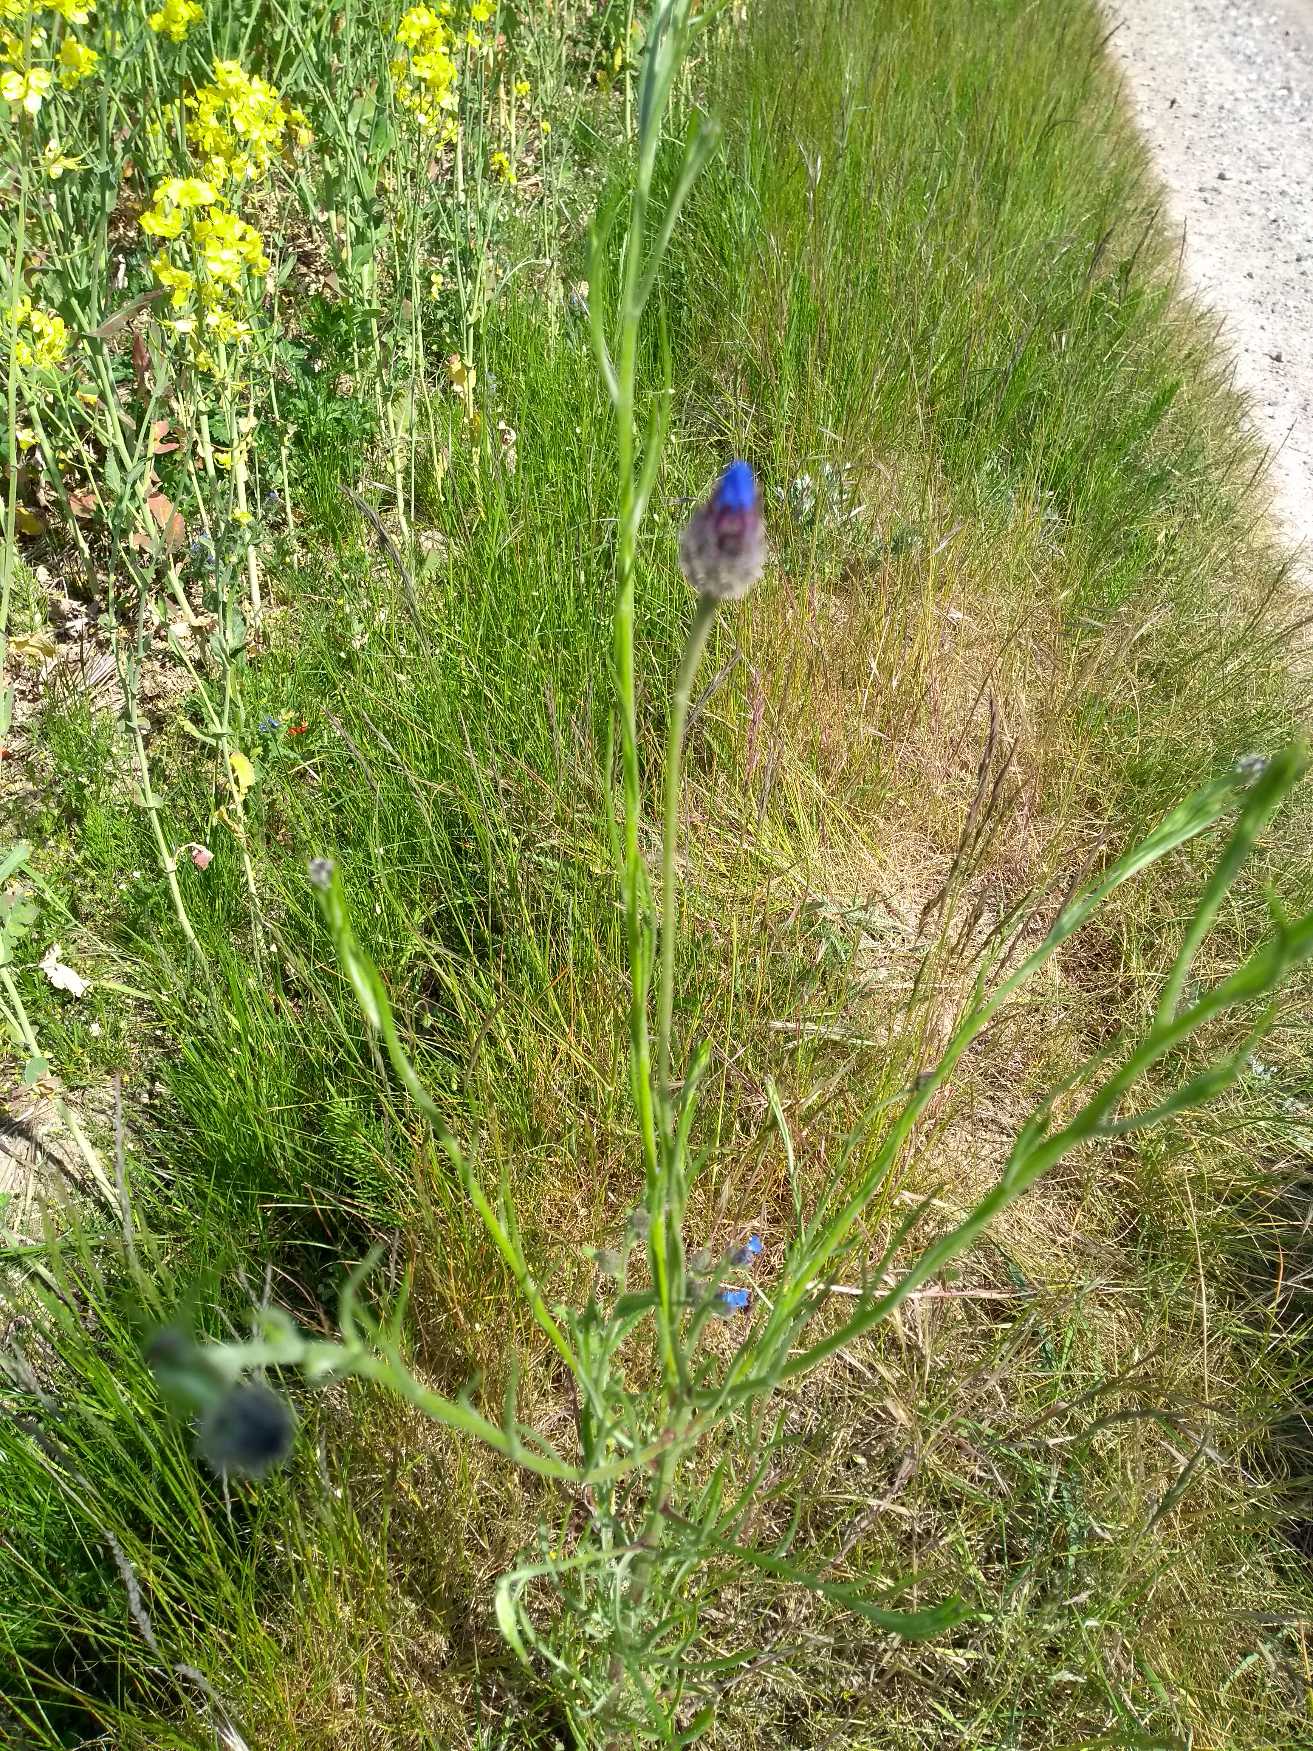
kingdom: Plantae
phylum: Tracheophyta
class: Magnoliopsida
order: Asterales
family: Asteraceae
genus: Centaurea
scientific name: Centaurea cyanus
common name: Kornblomst
